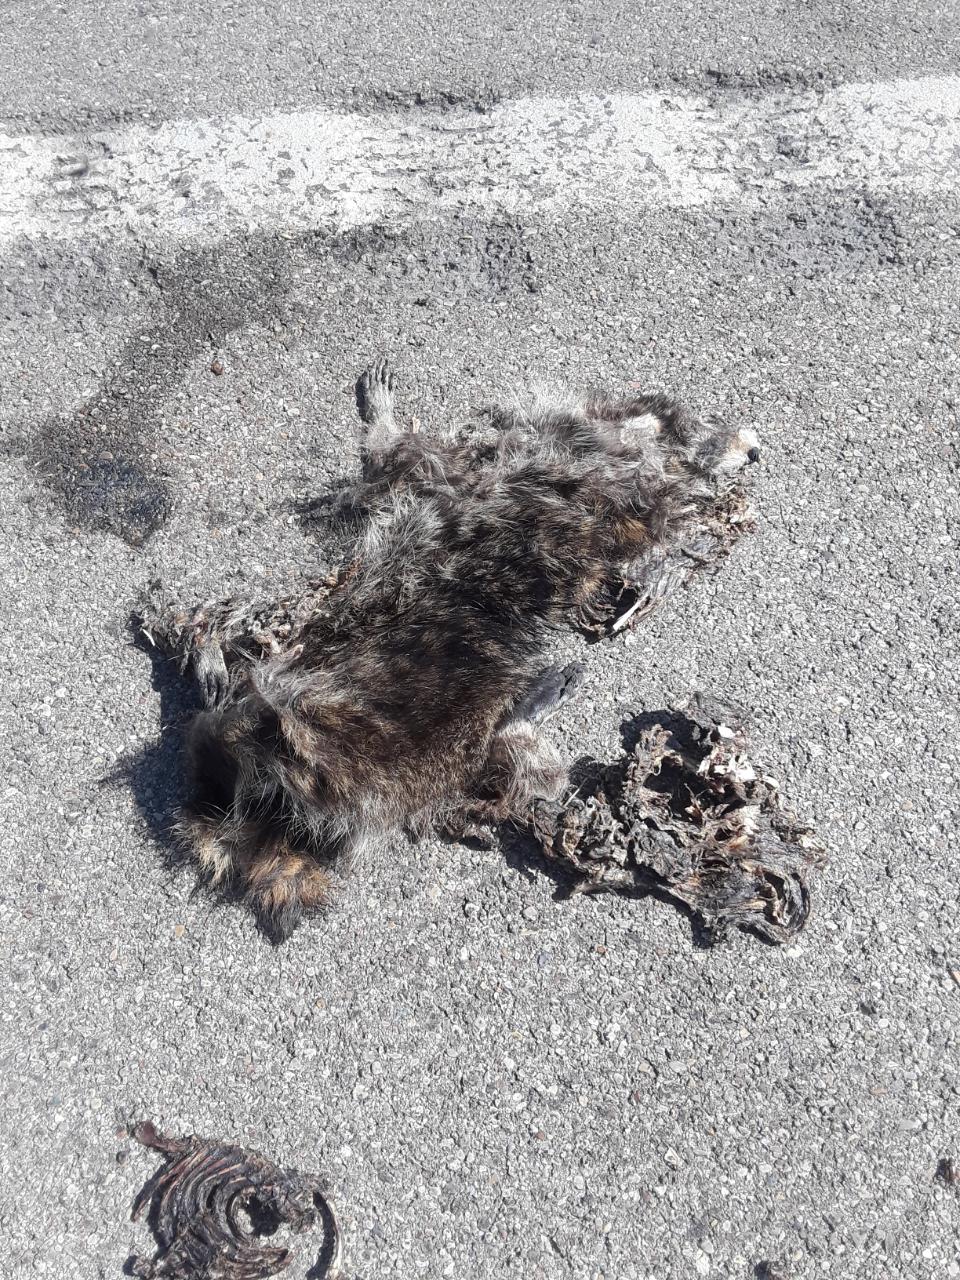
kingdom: Animalia
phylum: Chordata
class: Mammalia
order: Carnivora
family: Procyonidae
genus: Procyon
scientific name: Procyon lotor
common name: Raccoon
